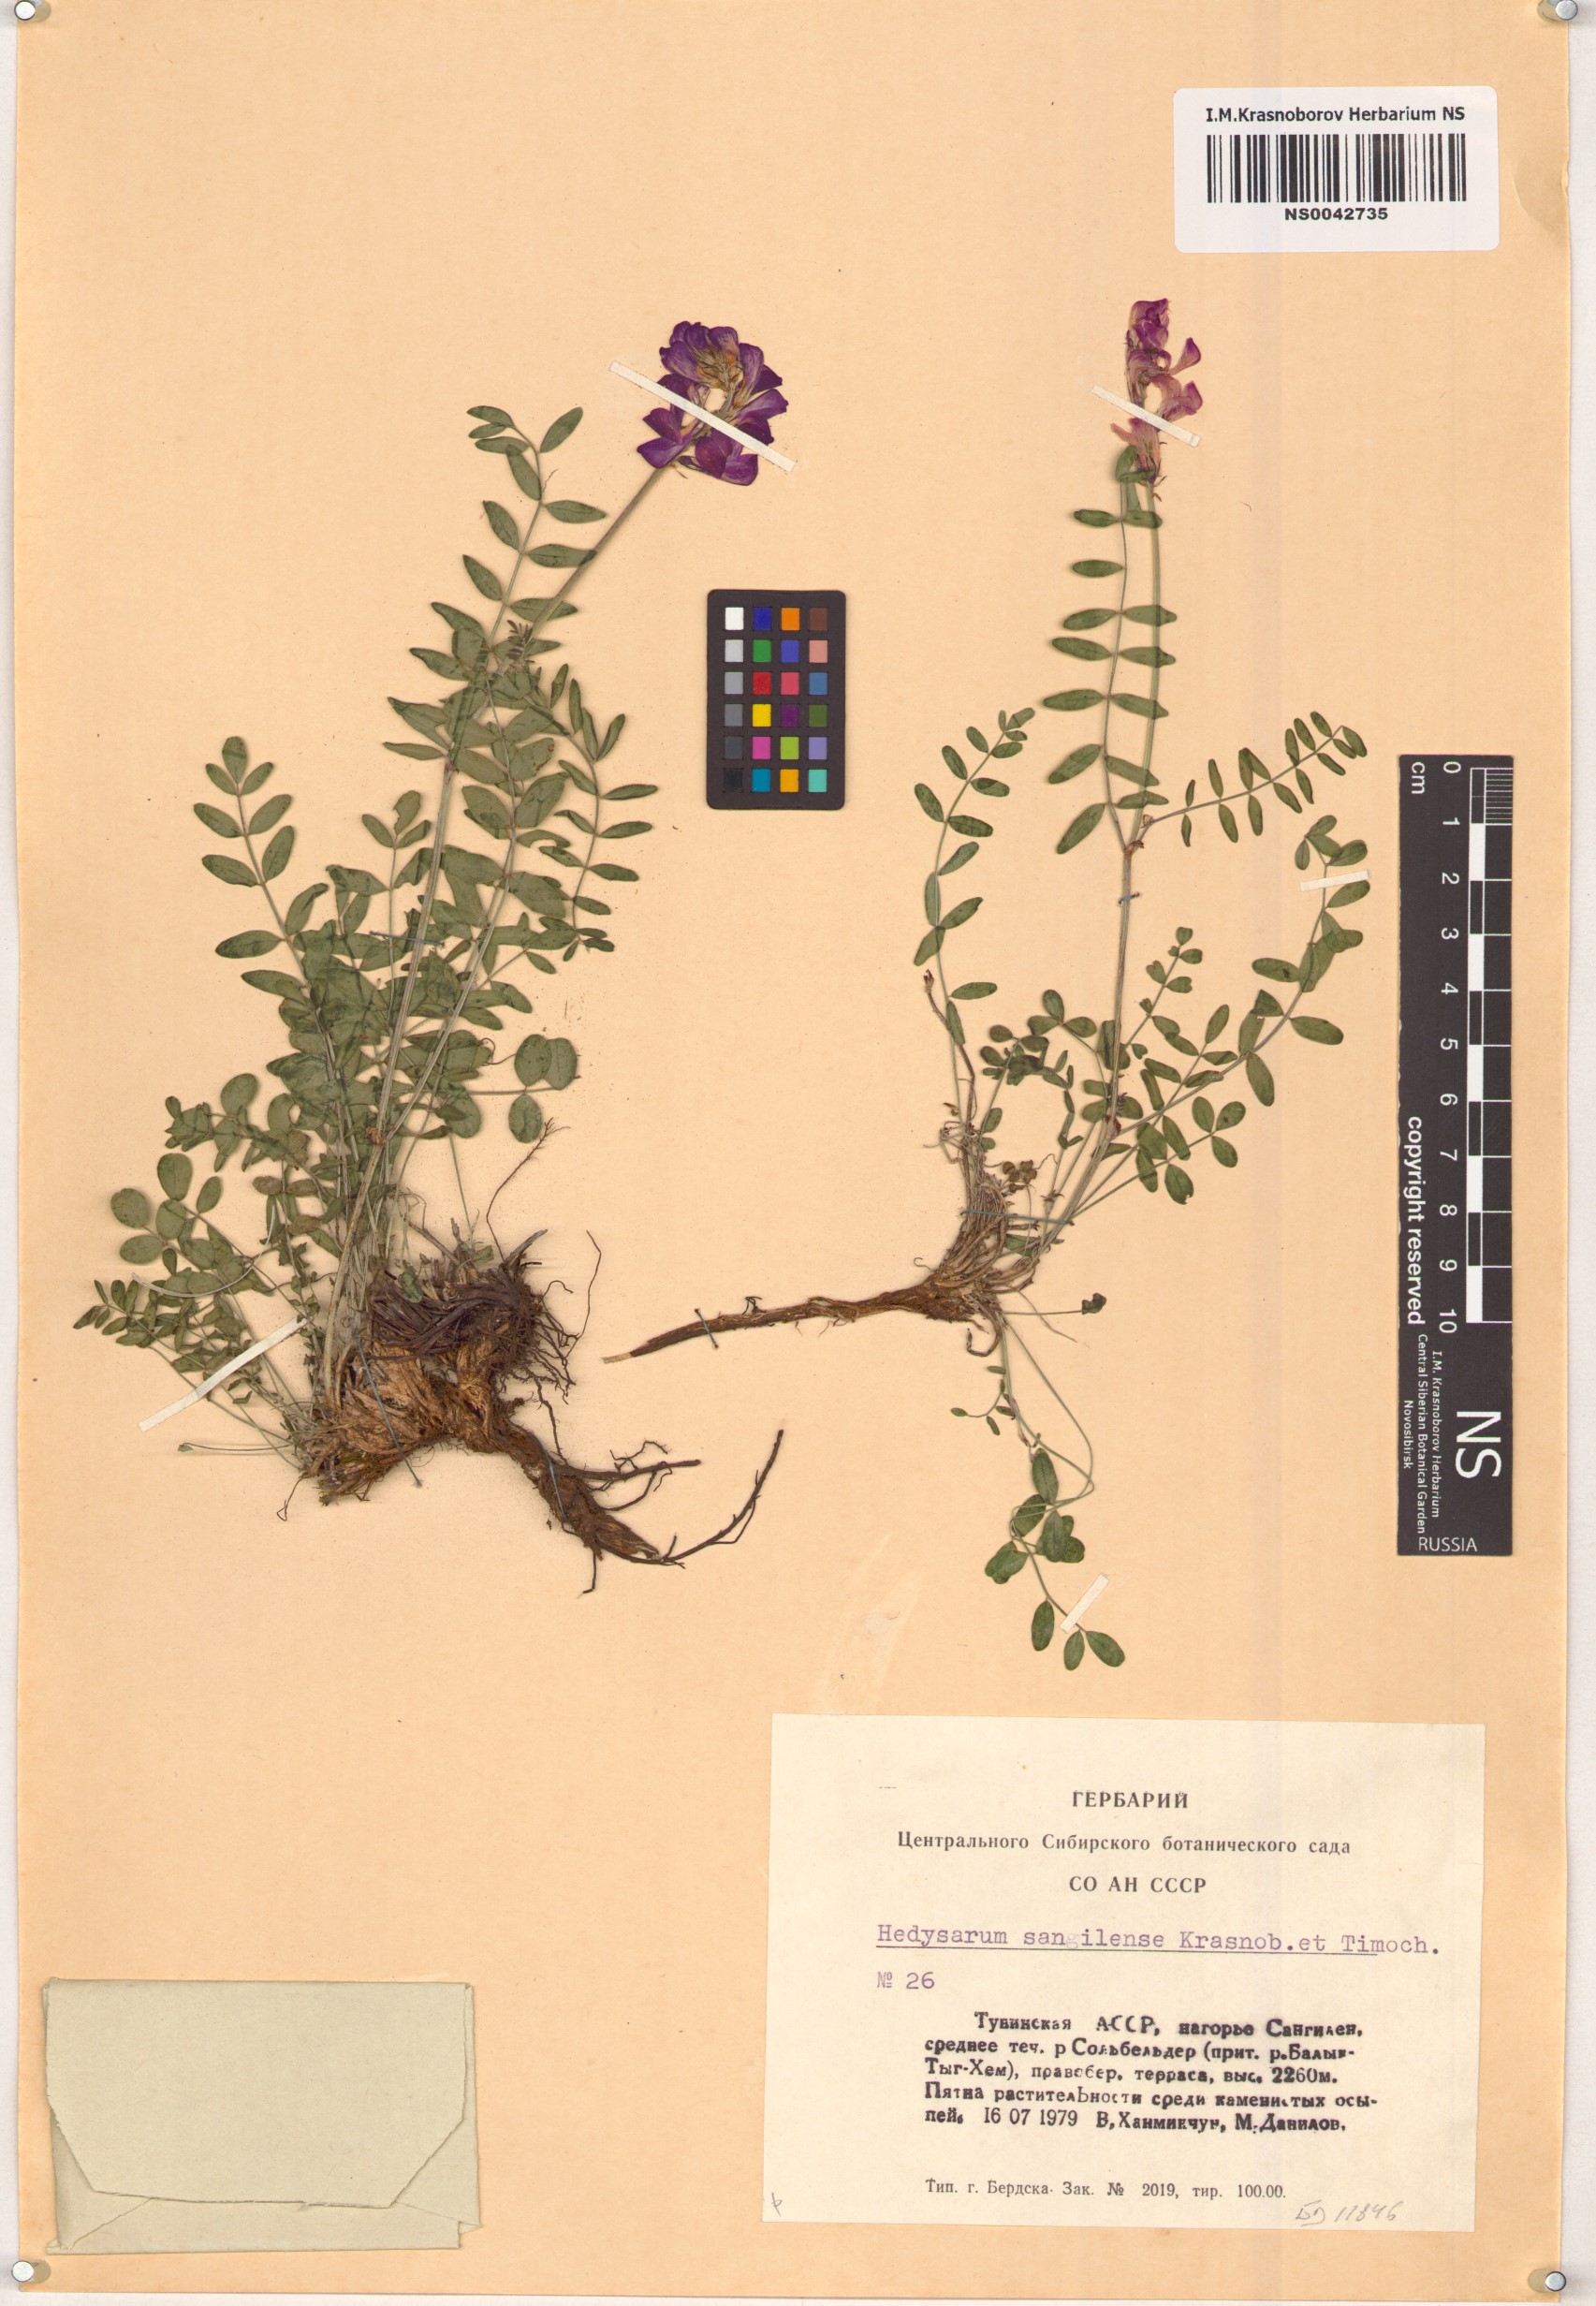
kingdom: Plantae
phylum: Tracheophyta
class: Magnoliopsida
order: Fabales
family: Fabaceae
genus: Hedysarum
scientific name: Hedysarum sangilense
